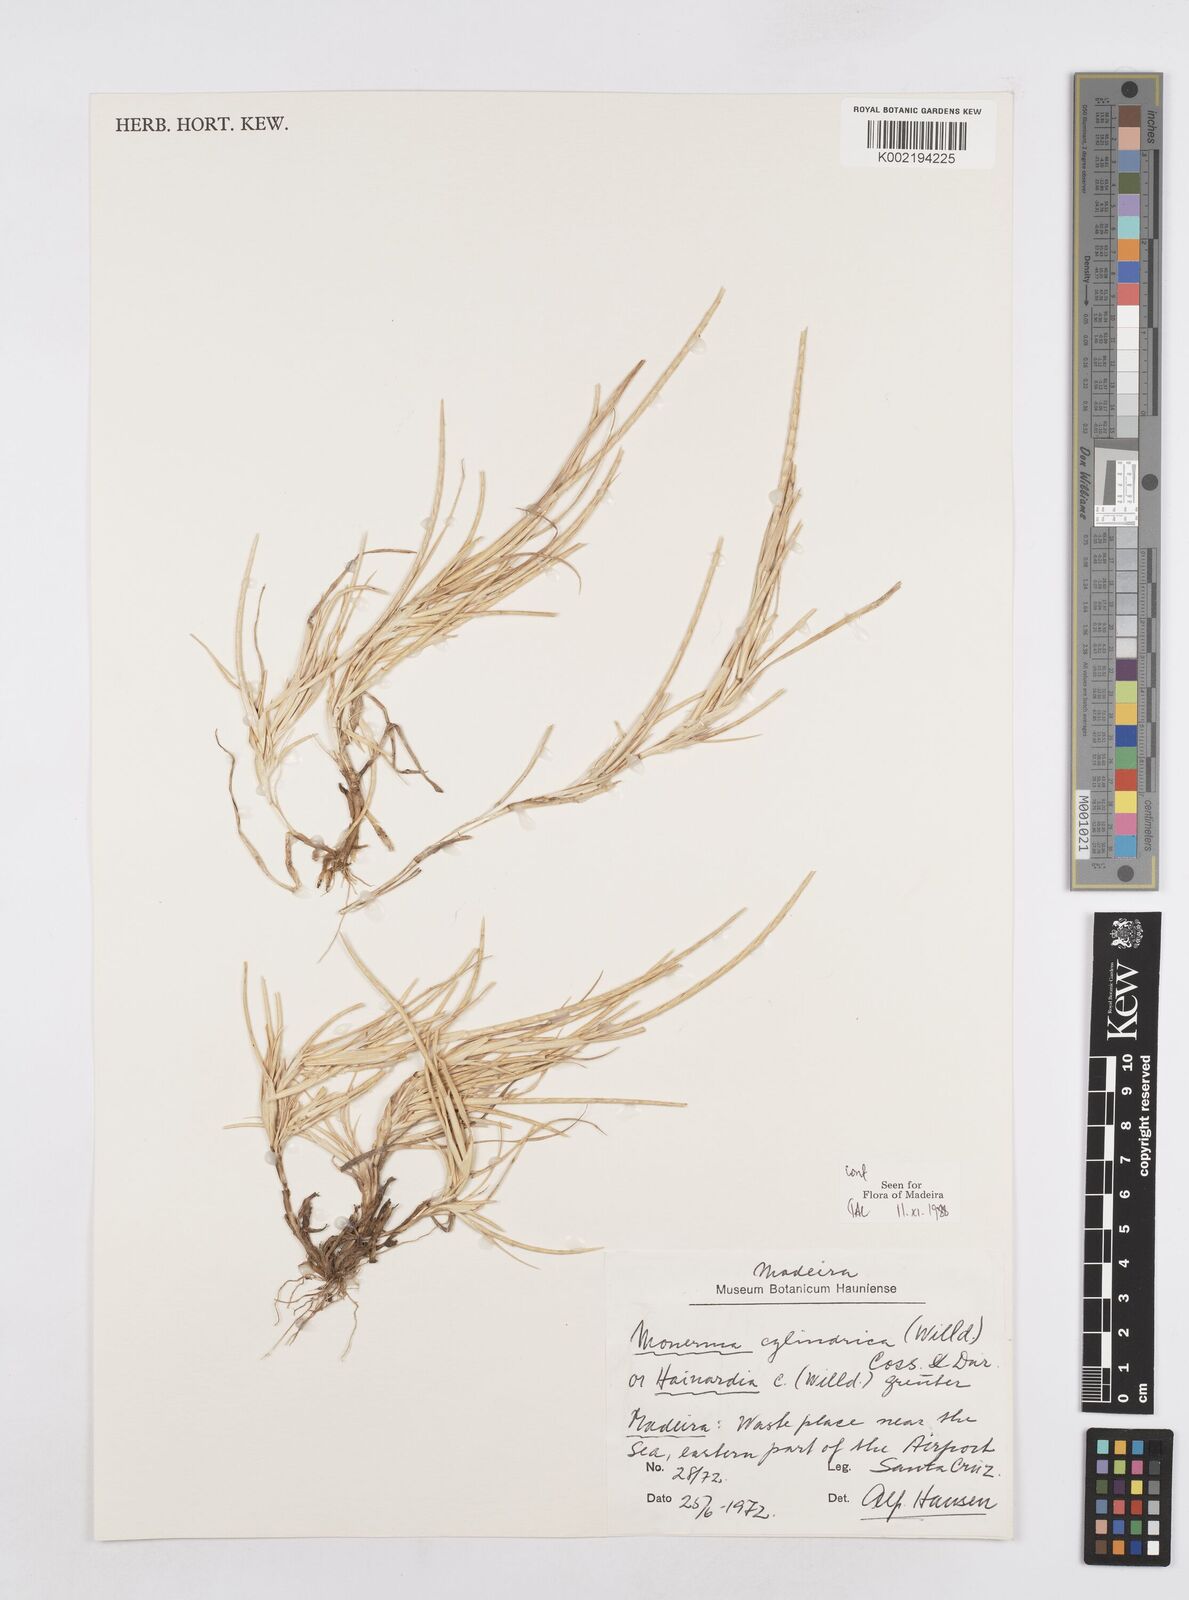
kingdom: Plantae
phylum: Tracheophyta
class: Liliopsida
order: Poales
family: Poaceae
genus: Parapholis
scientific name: Parapholis cylindrica
